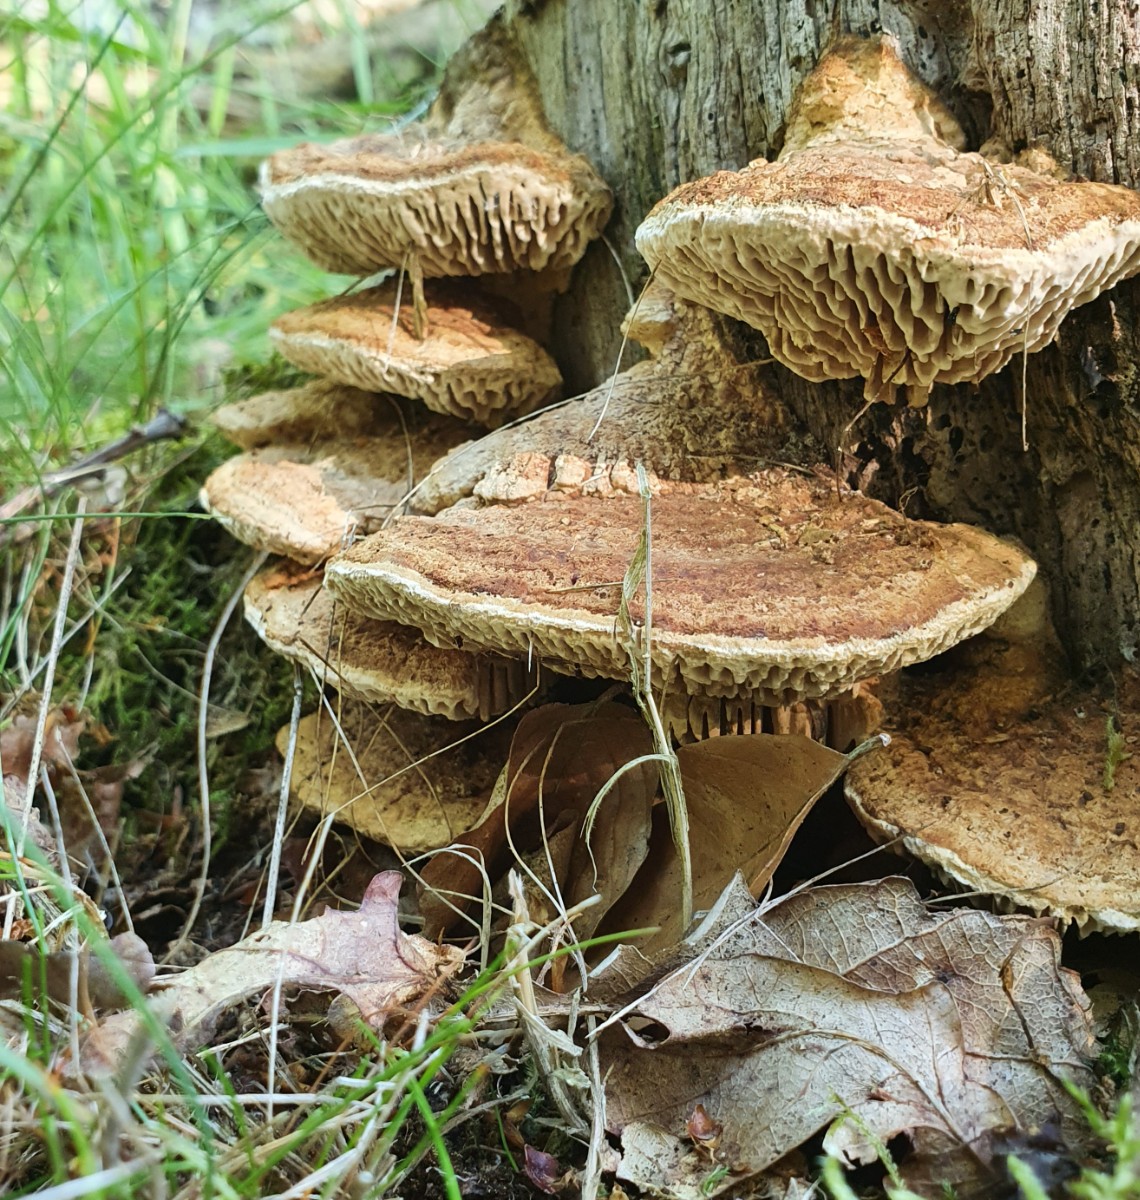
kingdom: Fungi
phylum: Basidiomycota
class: Agaricomycetes
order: Polyporales
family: Fomitopsidaceae
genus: Daedalea
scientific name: Daedalea quercina
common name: ege-labyrintsvamp
